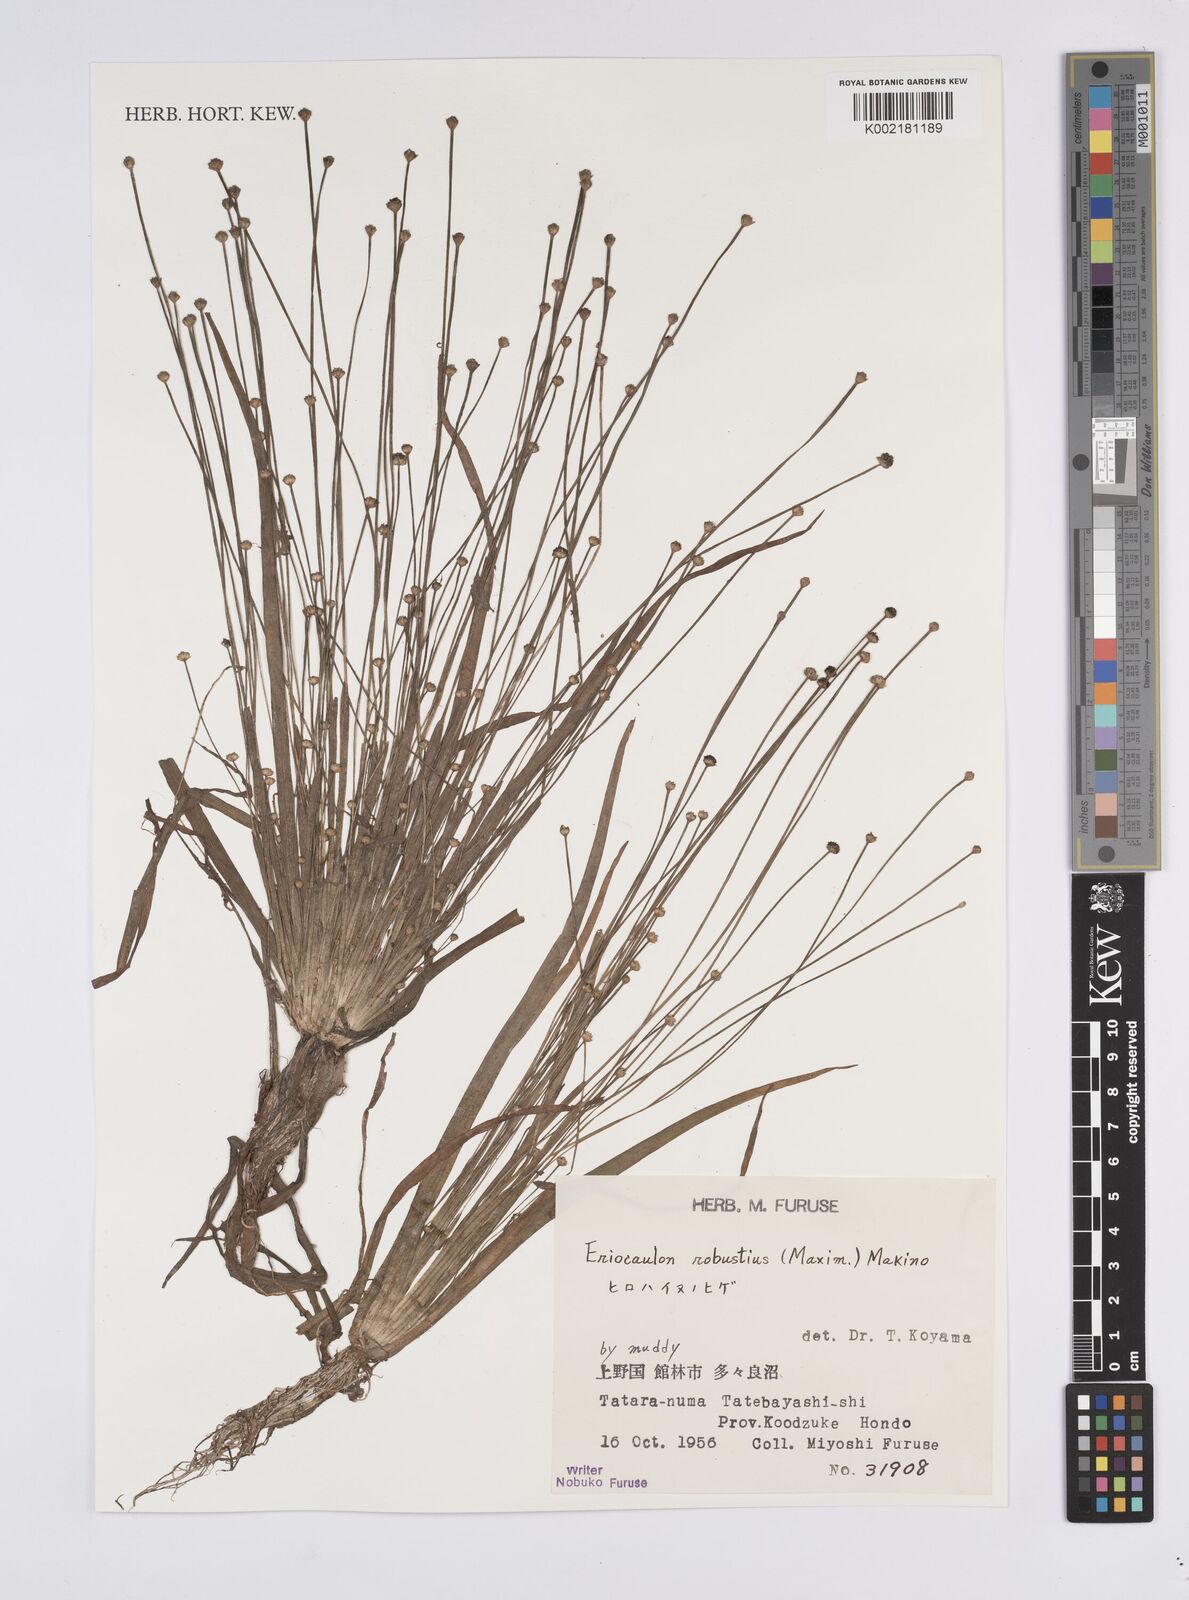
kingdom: Plantae
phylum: Tracheophyta
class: Liliopsida
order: Poales
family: Eriocaulaceae
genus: Eriocaulon
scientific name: Eriocaulon alpestre
